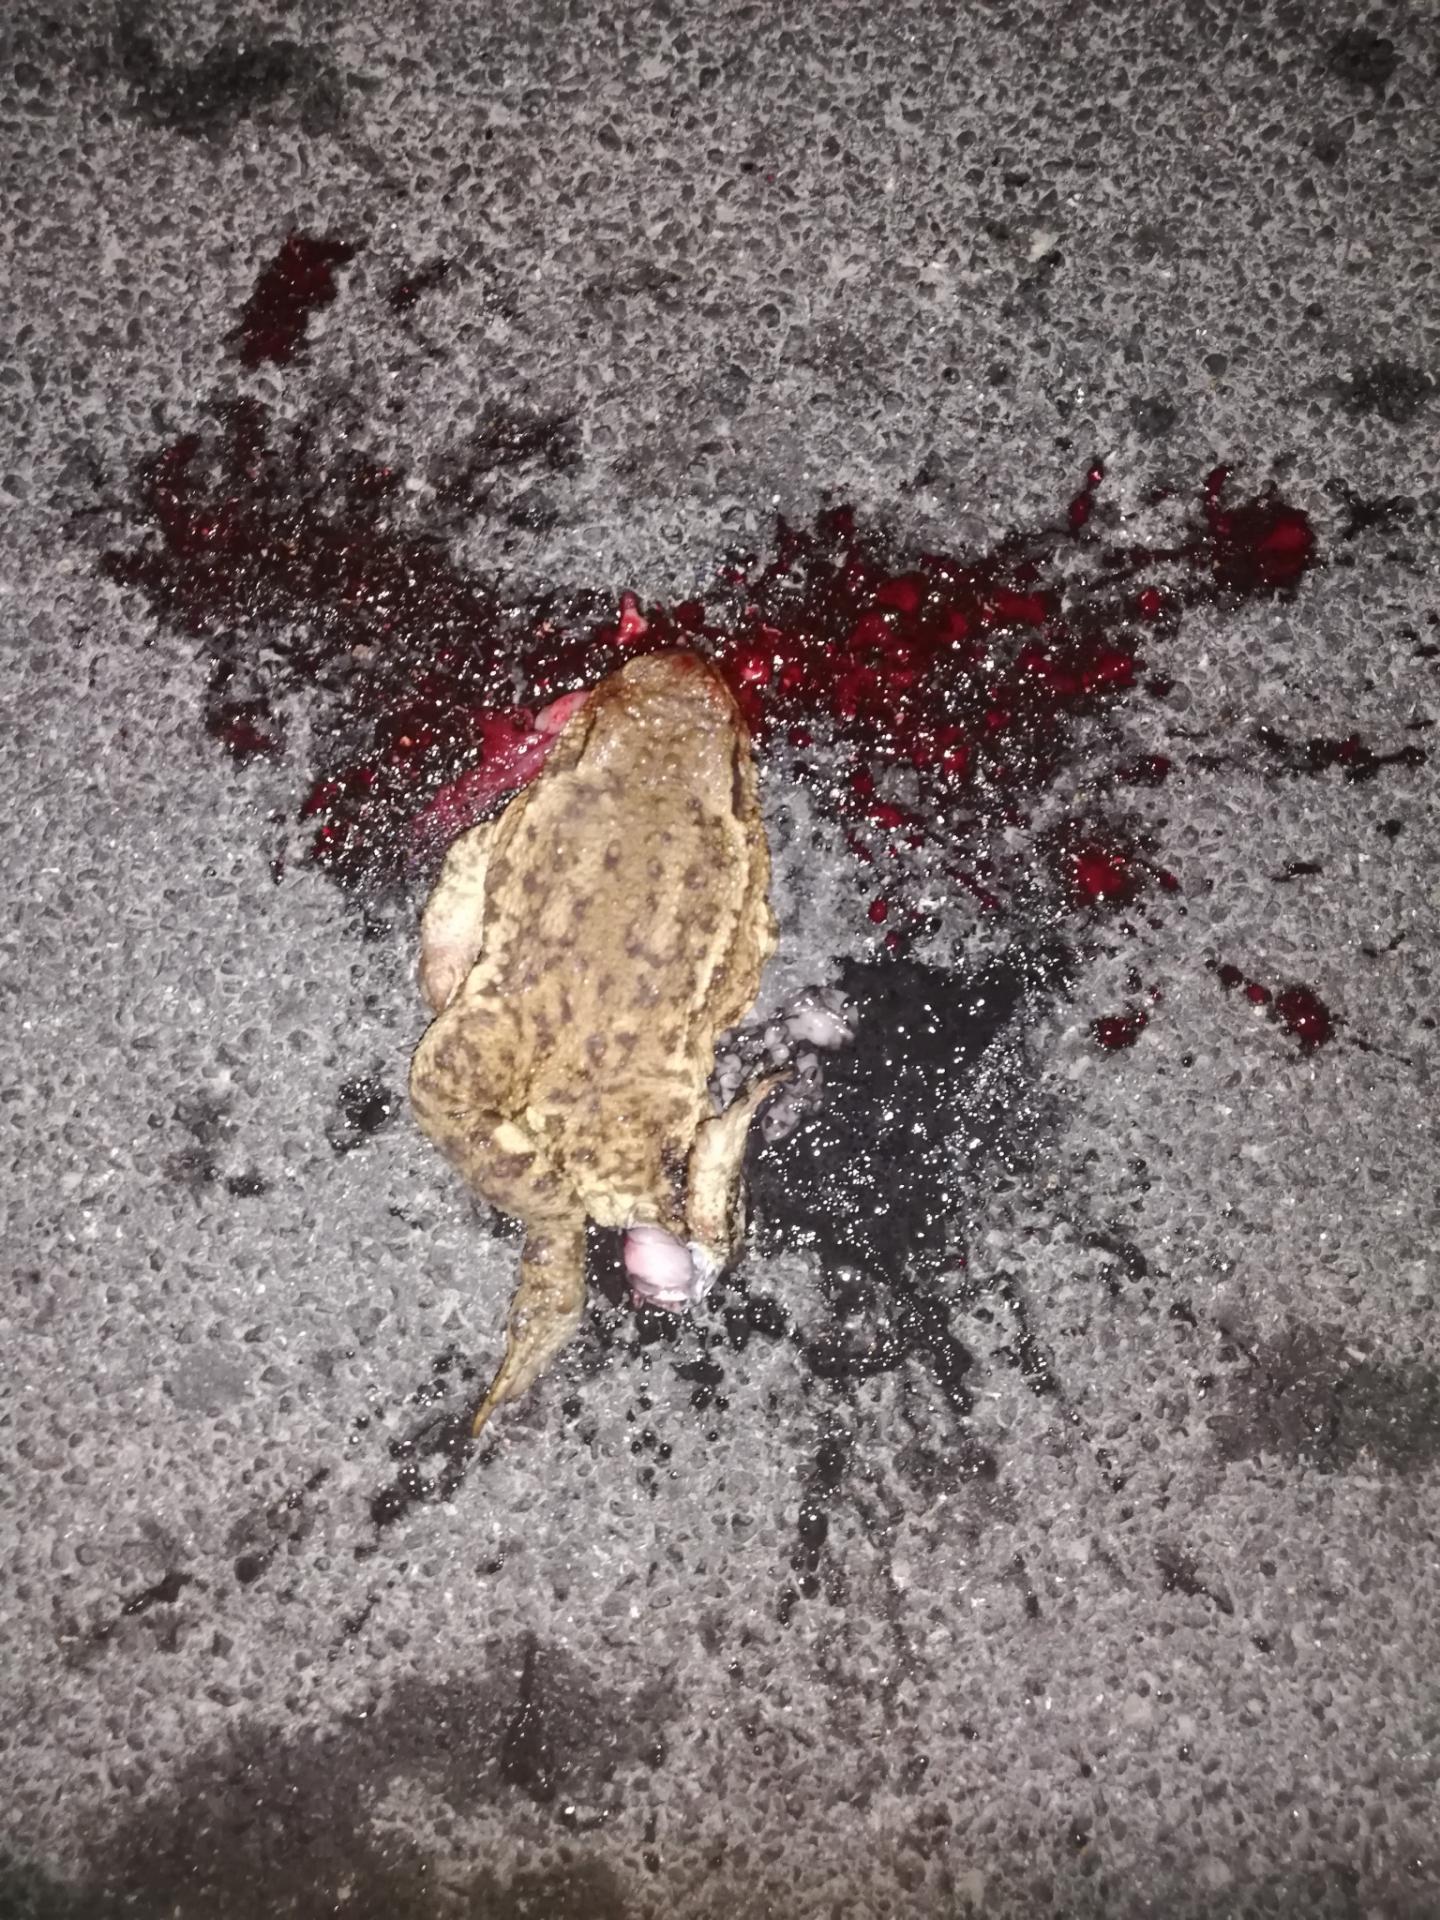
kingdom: Animalia
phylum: Chordata
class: Amphibia
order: Anura
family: Bufonidae
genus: Bufo
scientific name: Bufo bufo
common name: Common toad
